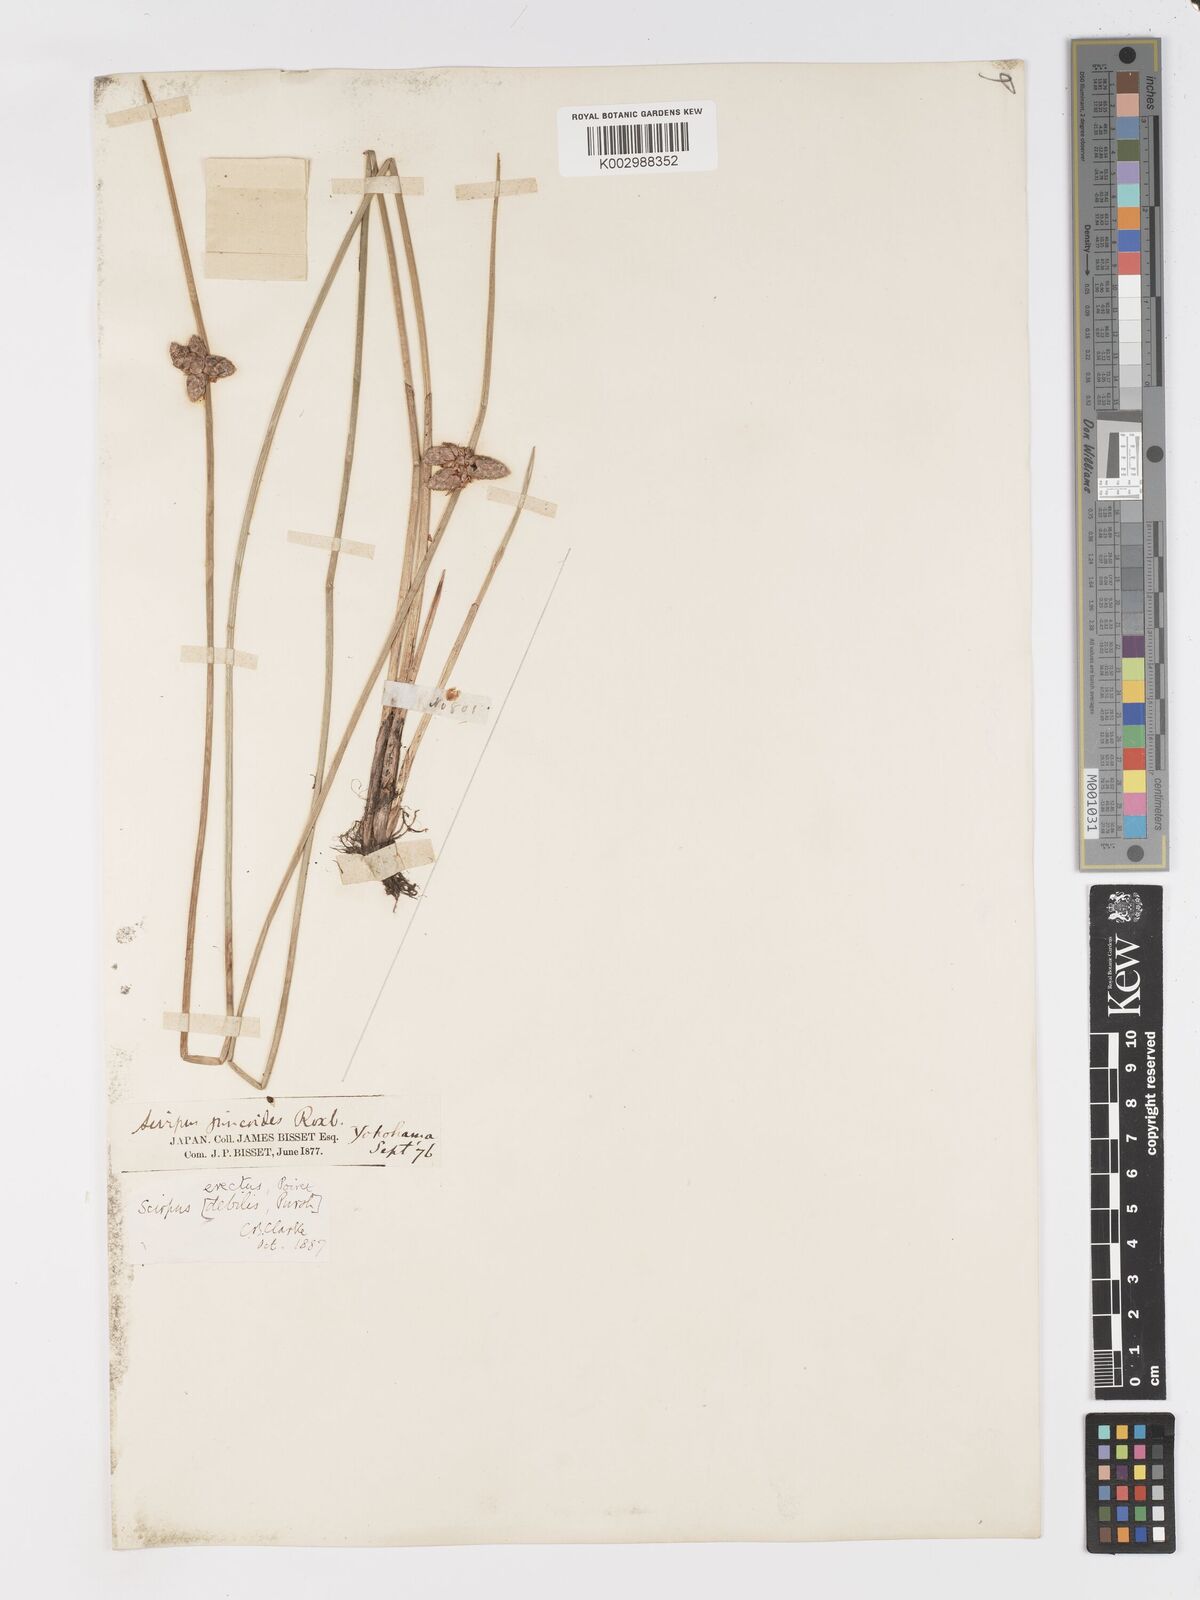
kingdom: Plantae
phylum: Tracheophyta
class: Liliopsida
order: Poales
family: Cyperaceae
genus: Schoenoplectiella
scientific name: Schoenoplectiella juncoides
